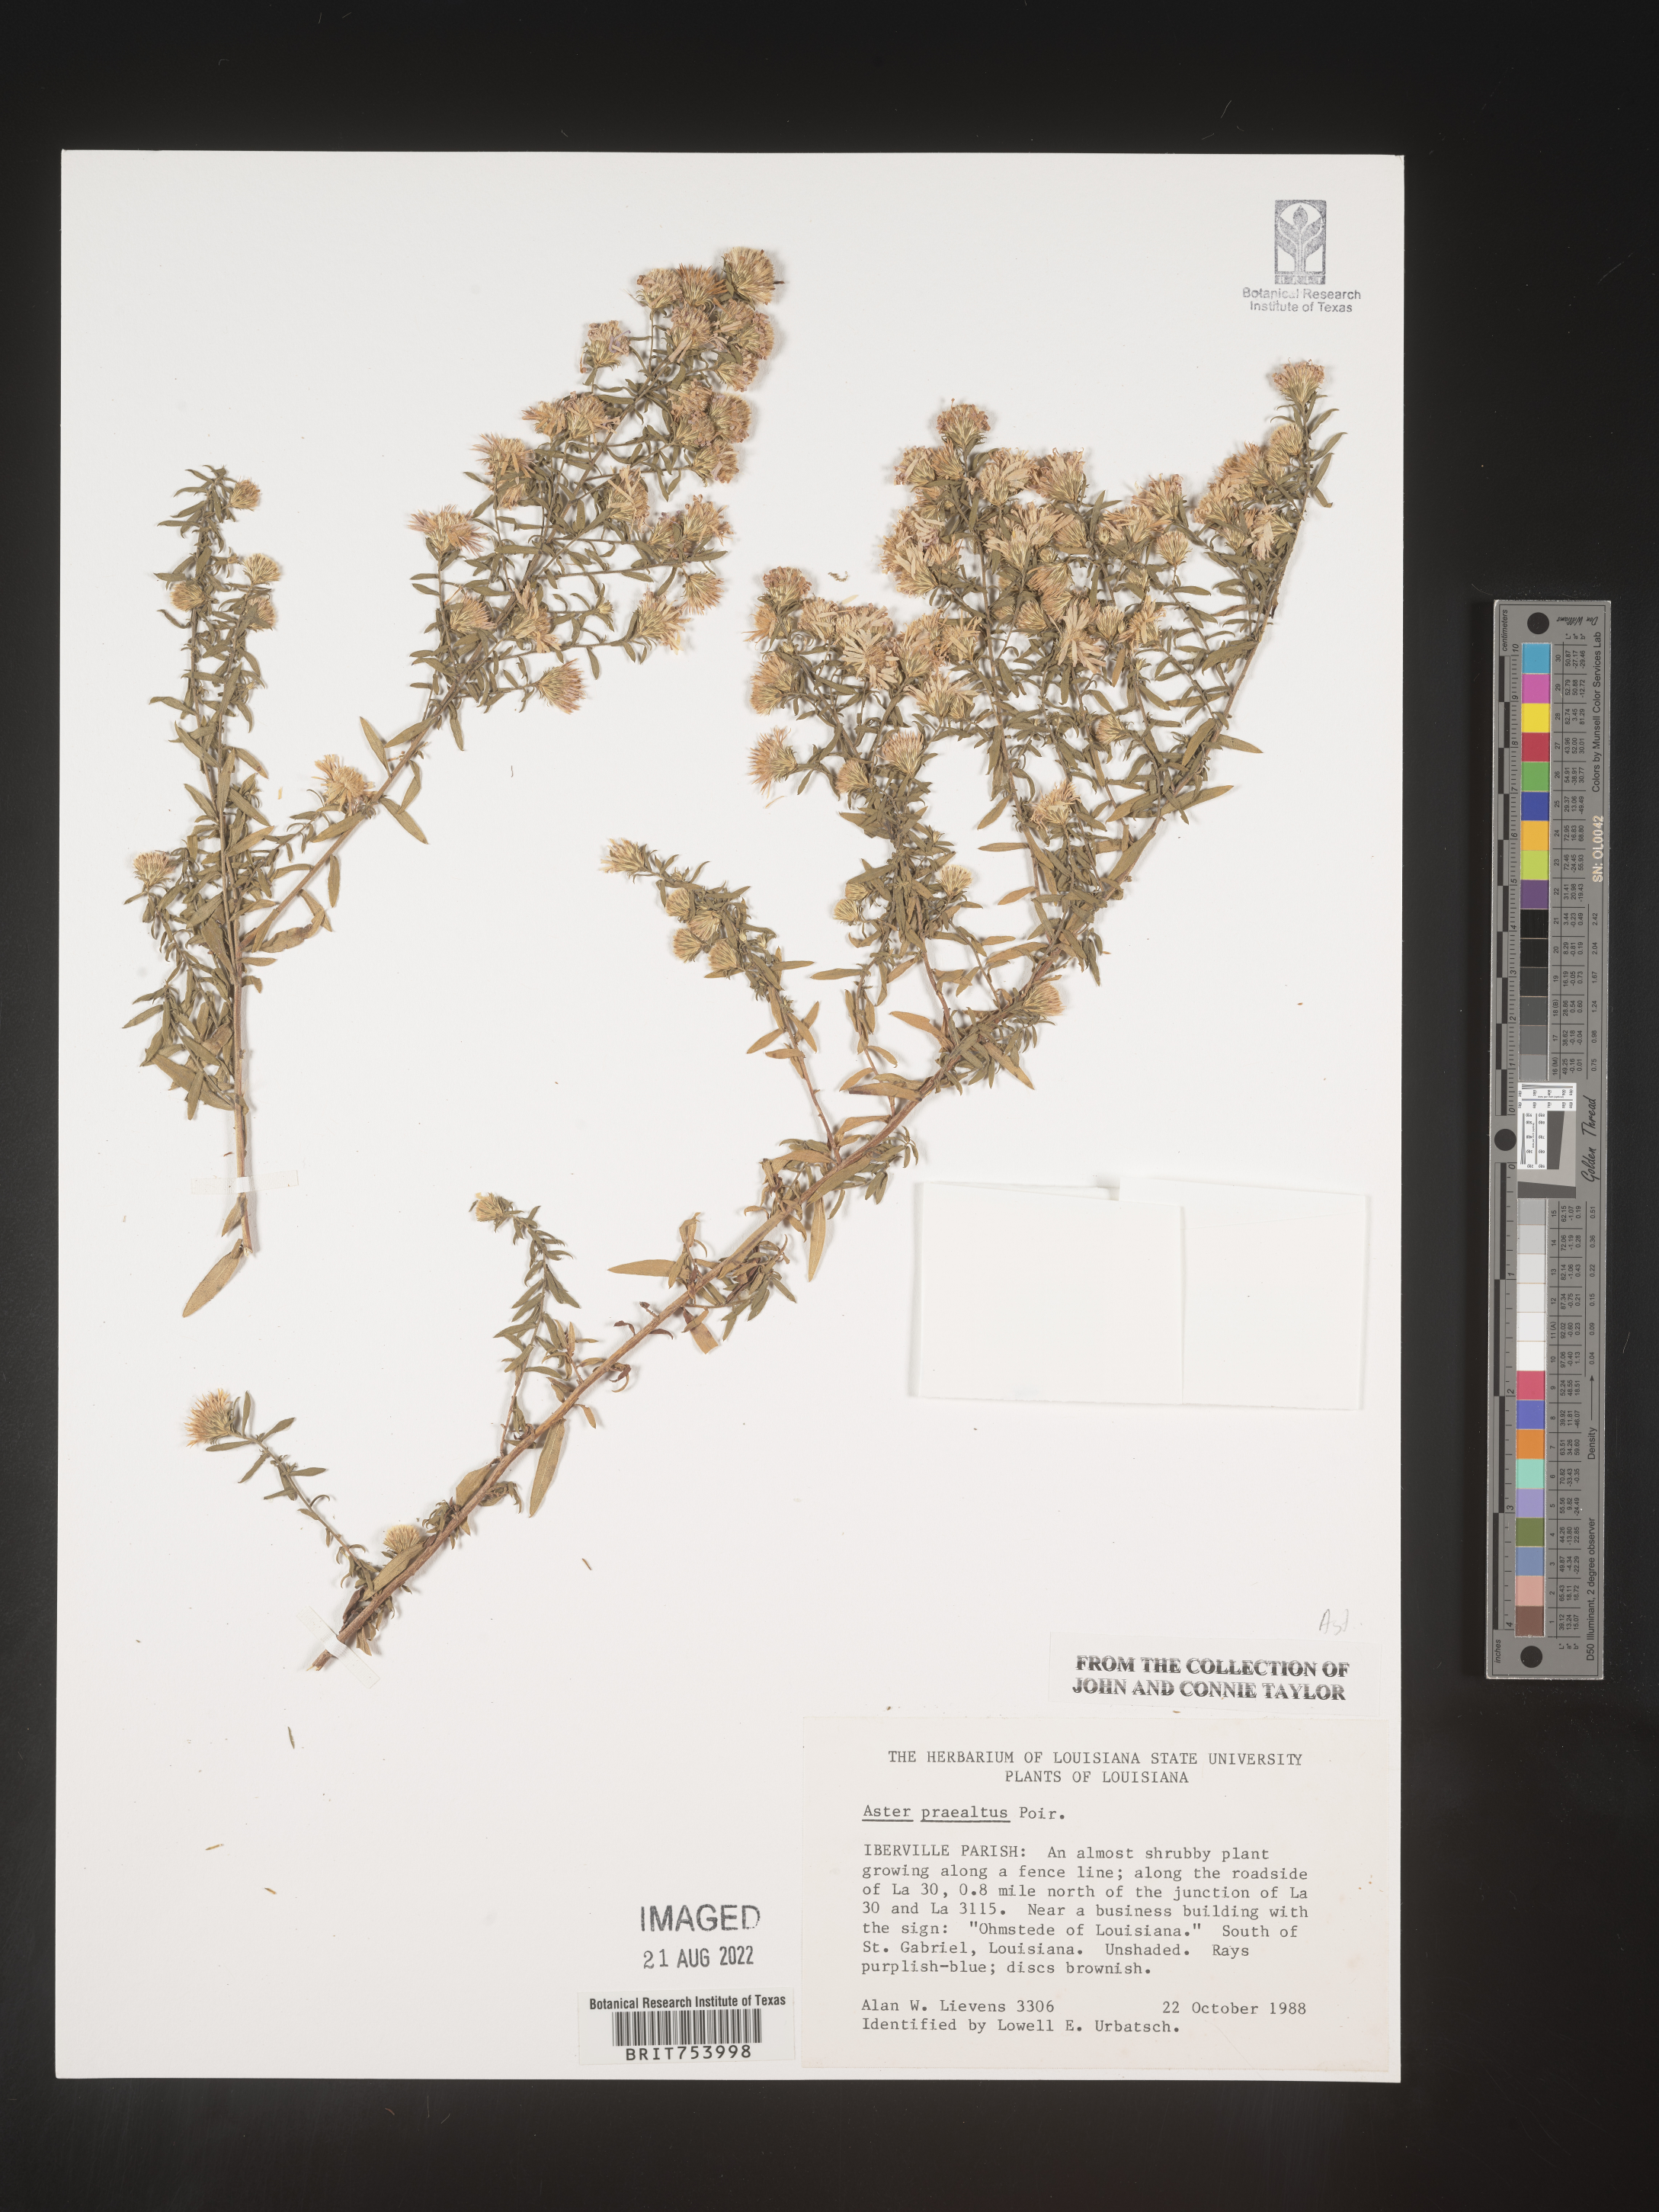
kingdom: Plantae
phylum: Tracheophyta
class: Magnoliopsida
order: Asterales
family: Asteraceae
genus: Symphyotrichum
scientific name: Symphyotrichum praealtum
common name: Willow aster
